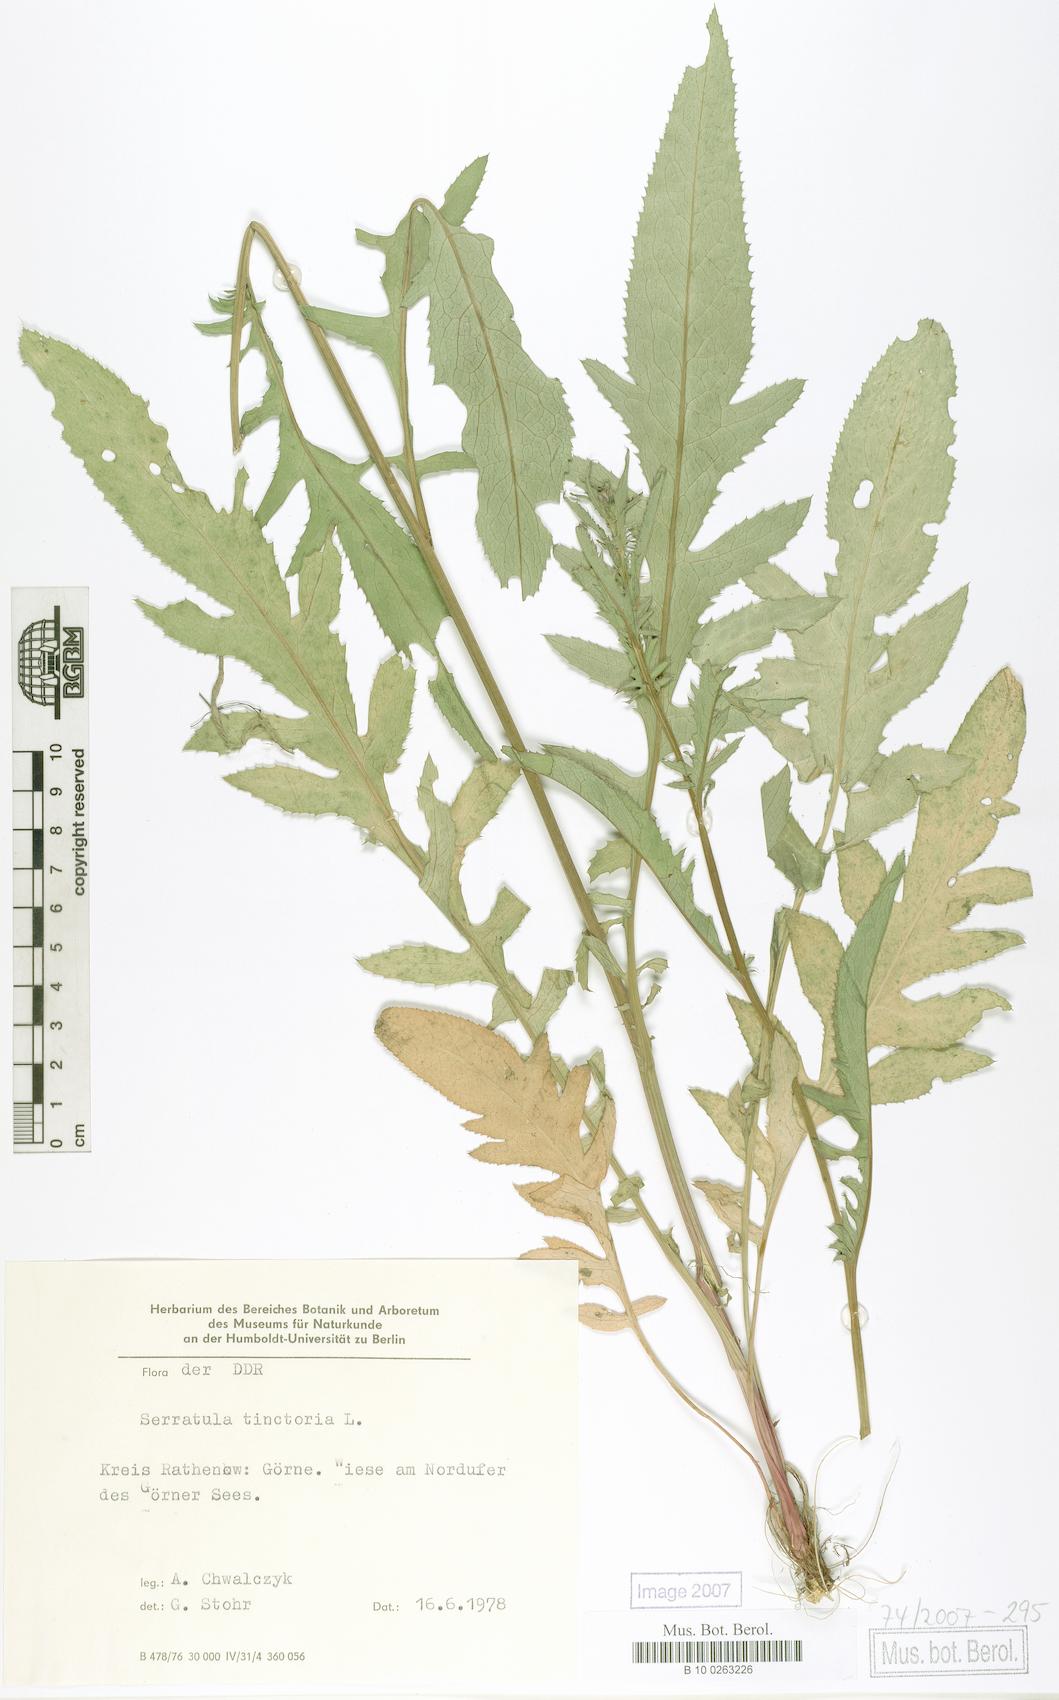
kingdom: Plantae
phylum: Tracheophyta
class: Magnoliopsida
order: Asterales
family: Asteraceae
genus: Serratula
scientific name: Serratula tinctoria
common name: Saw-wort
